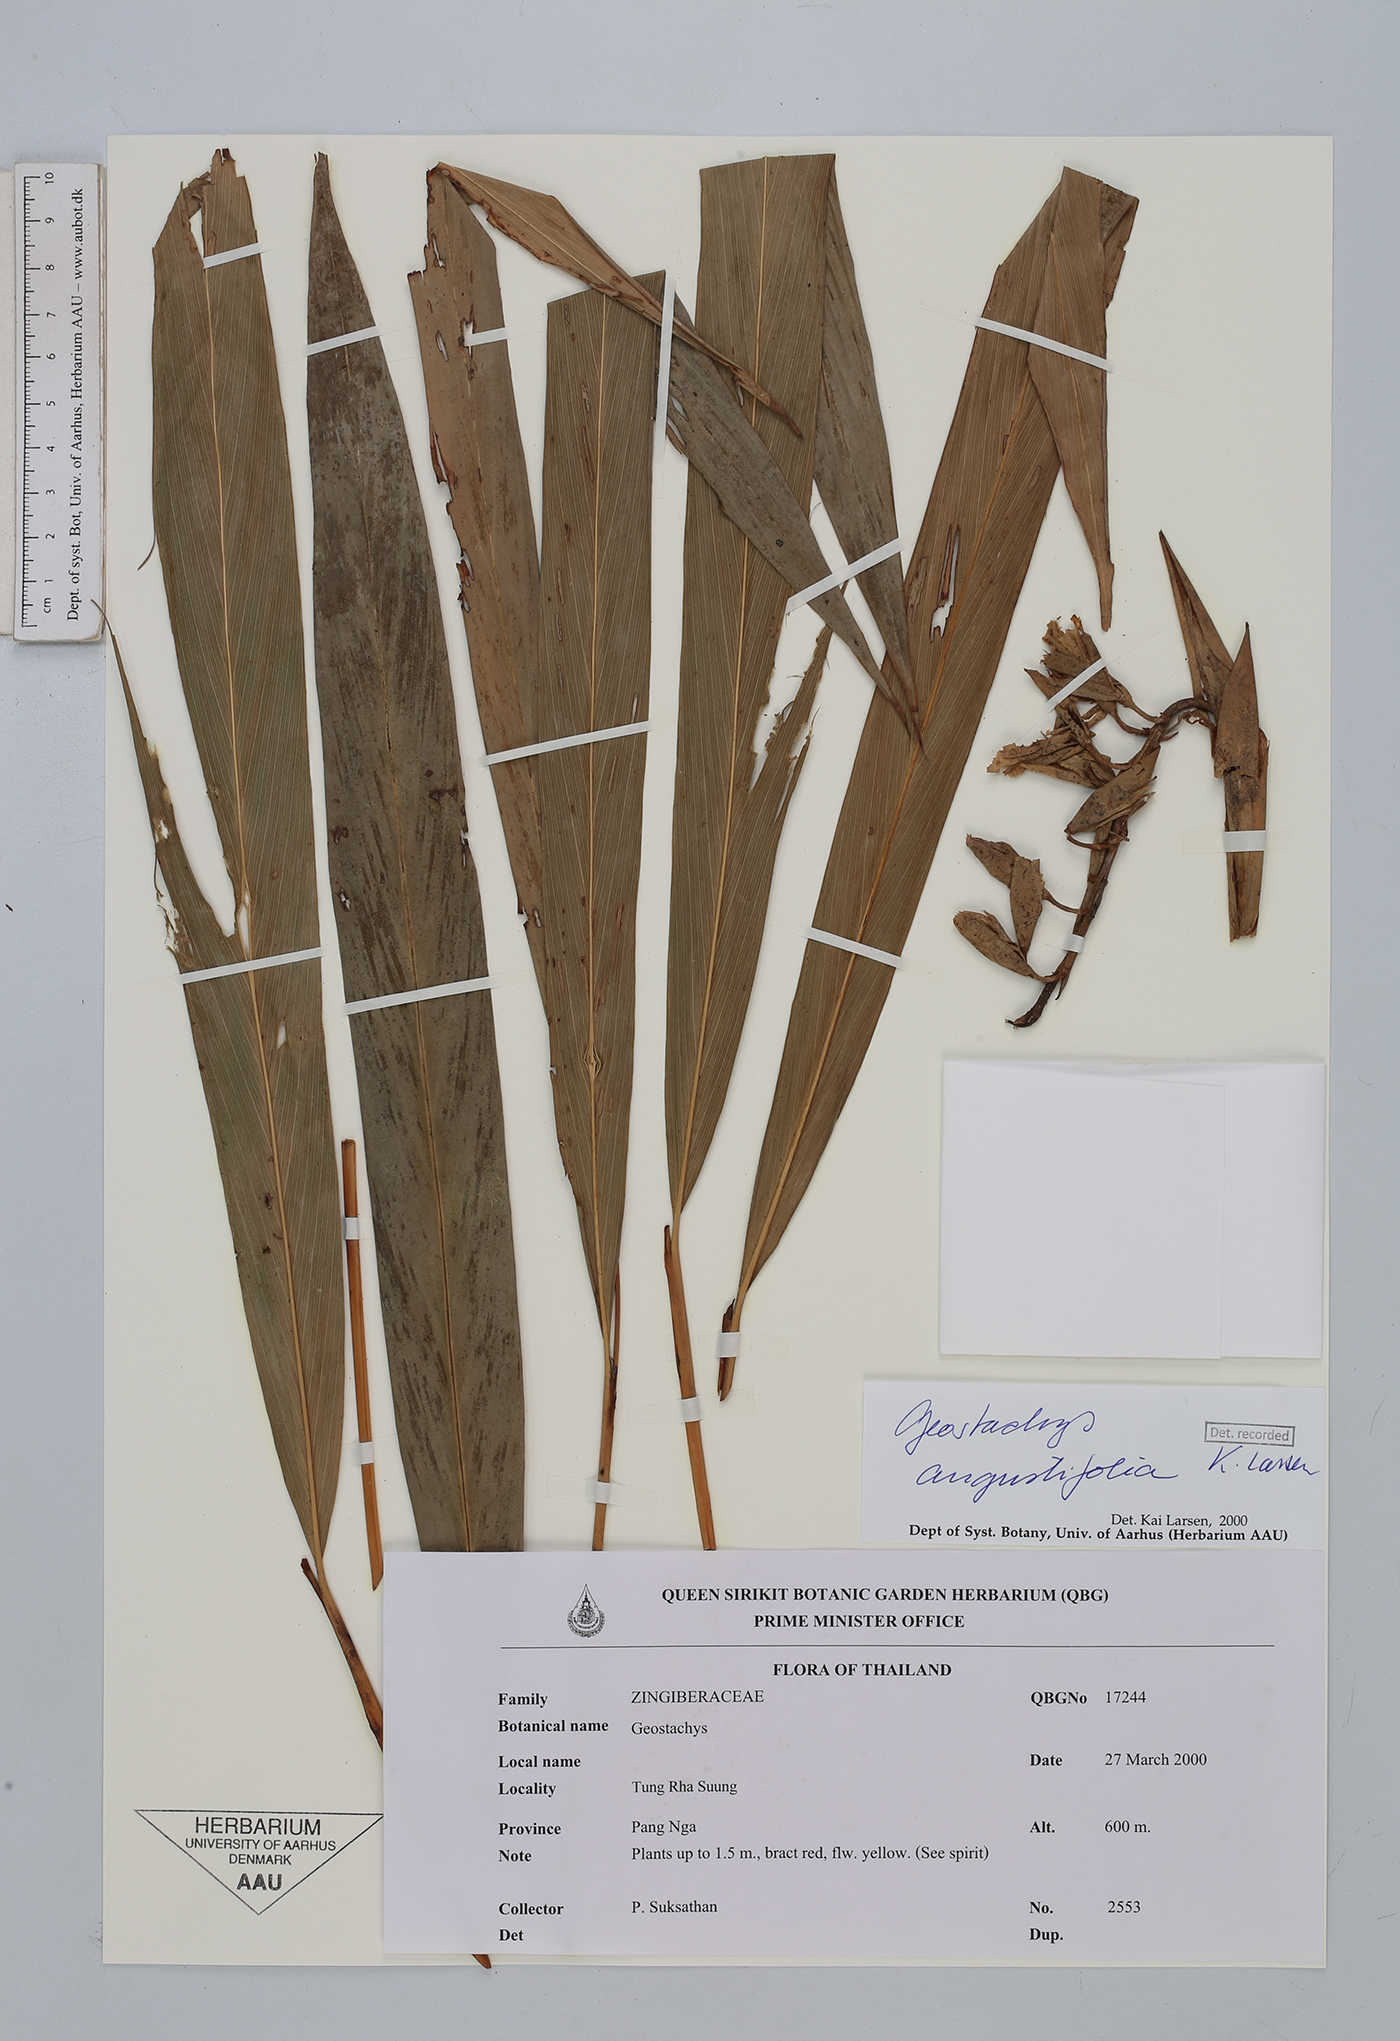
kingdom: Plantae
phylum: Tracheophyta
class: Liliopsida
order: Zingiberales
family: Zingiberaceae
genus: Geostachys
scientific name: Geostachys angustifolia
